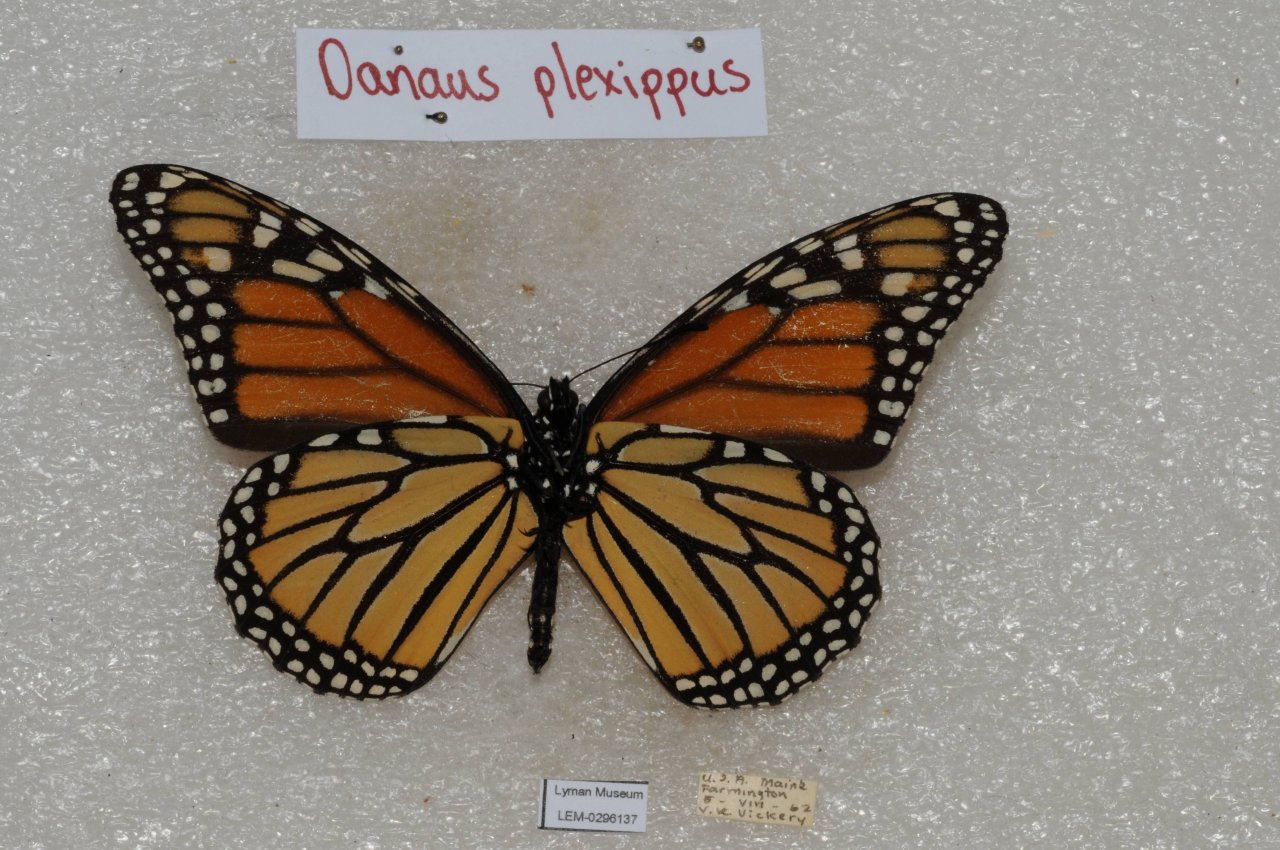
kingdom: Animalia
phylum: Arthropoda
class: Insecta
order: Lepidoptera
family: Nymphalidae
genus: Danaus
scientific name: Danaus plexippus
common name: Monarch
